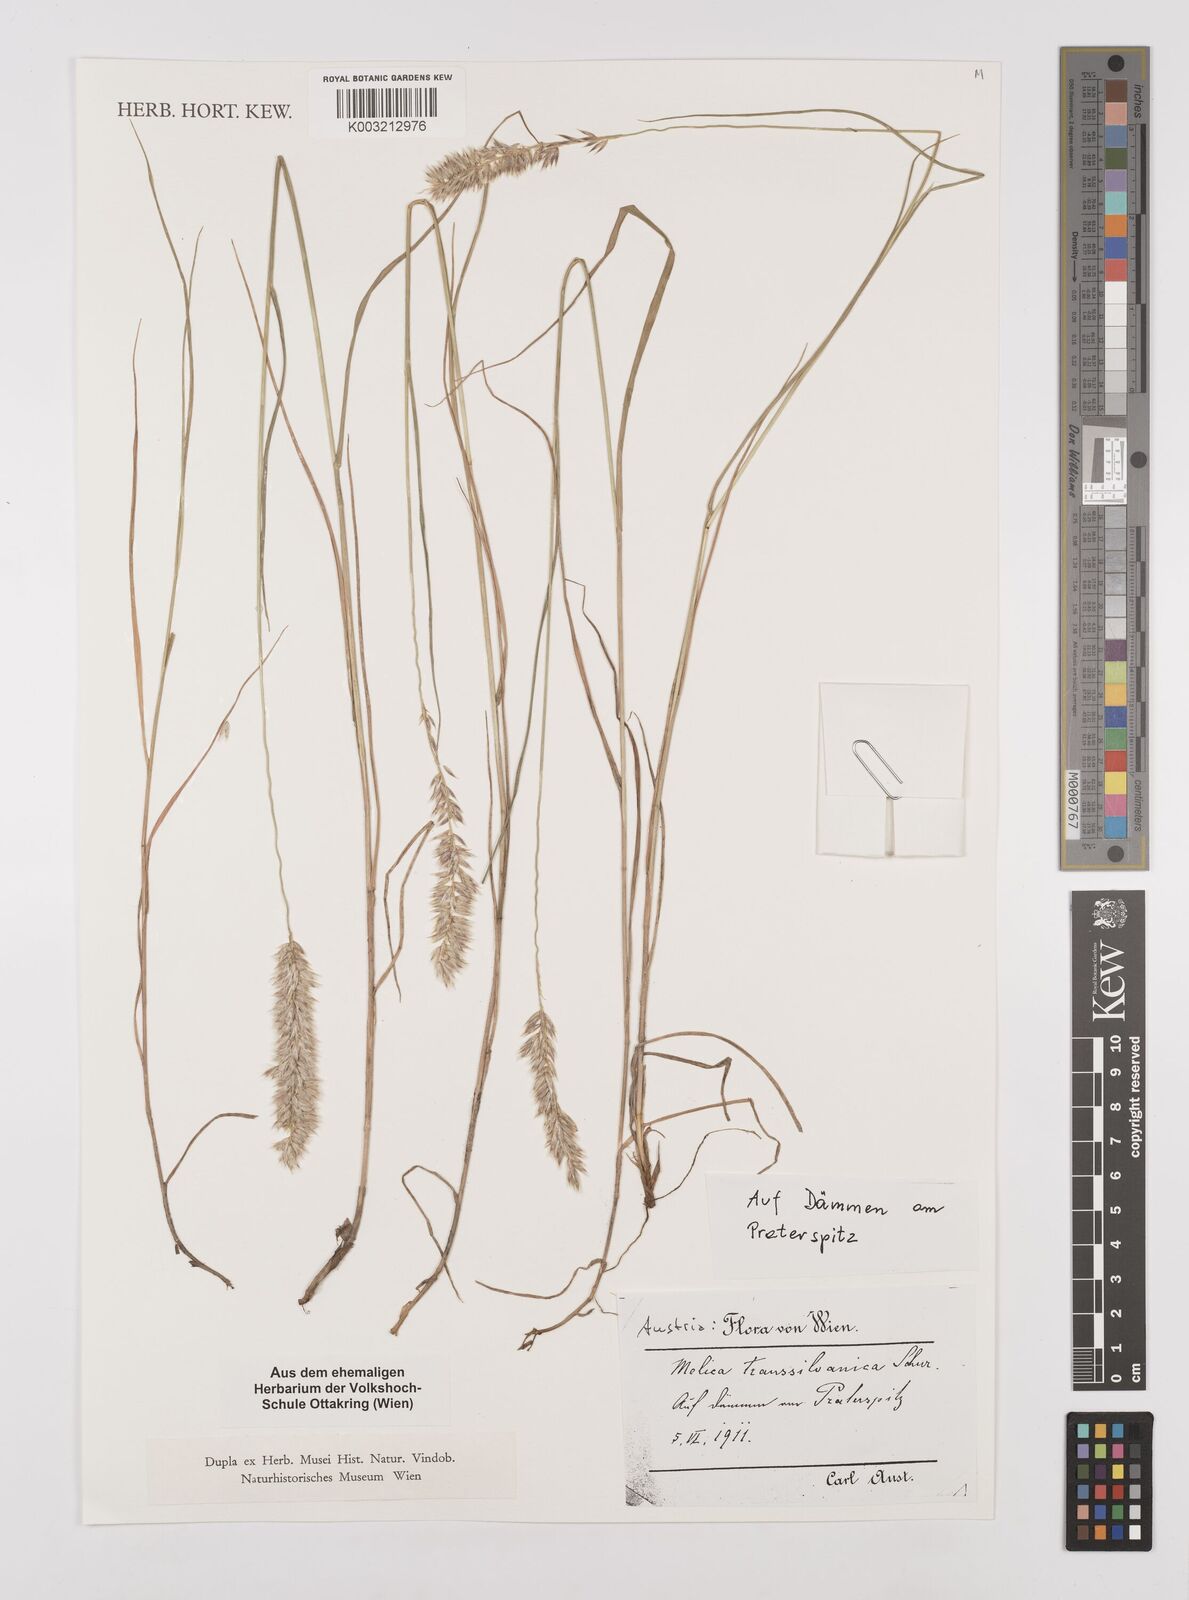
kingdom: Plantae
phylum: Tracheophyta
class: Liliopsida
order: Poales
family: Poaceae
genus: Melica
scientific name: Melica transsilvanica
